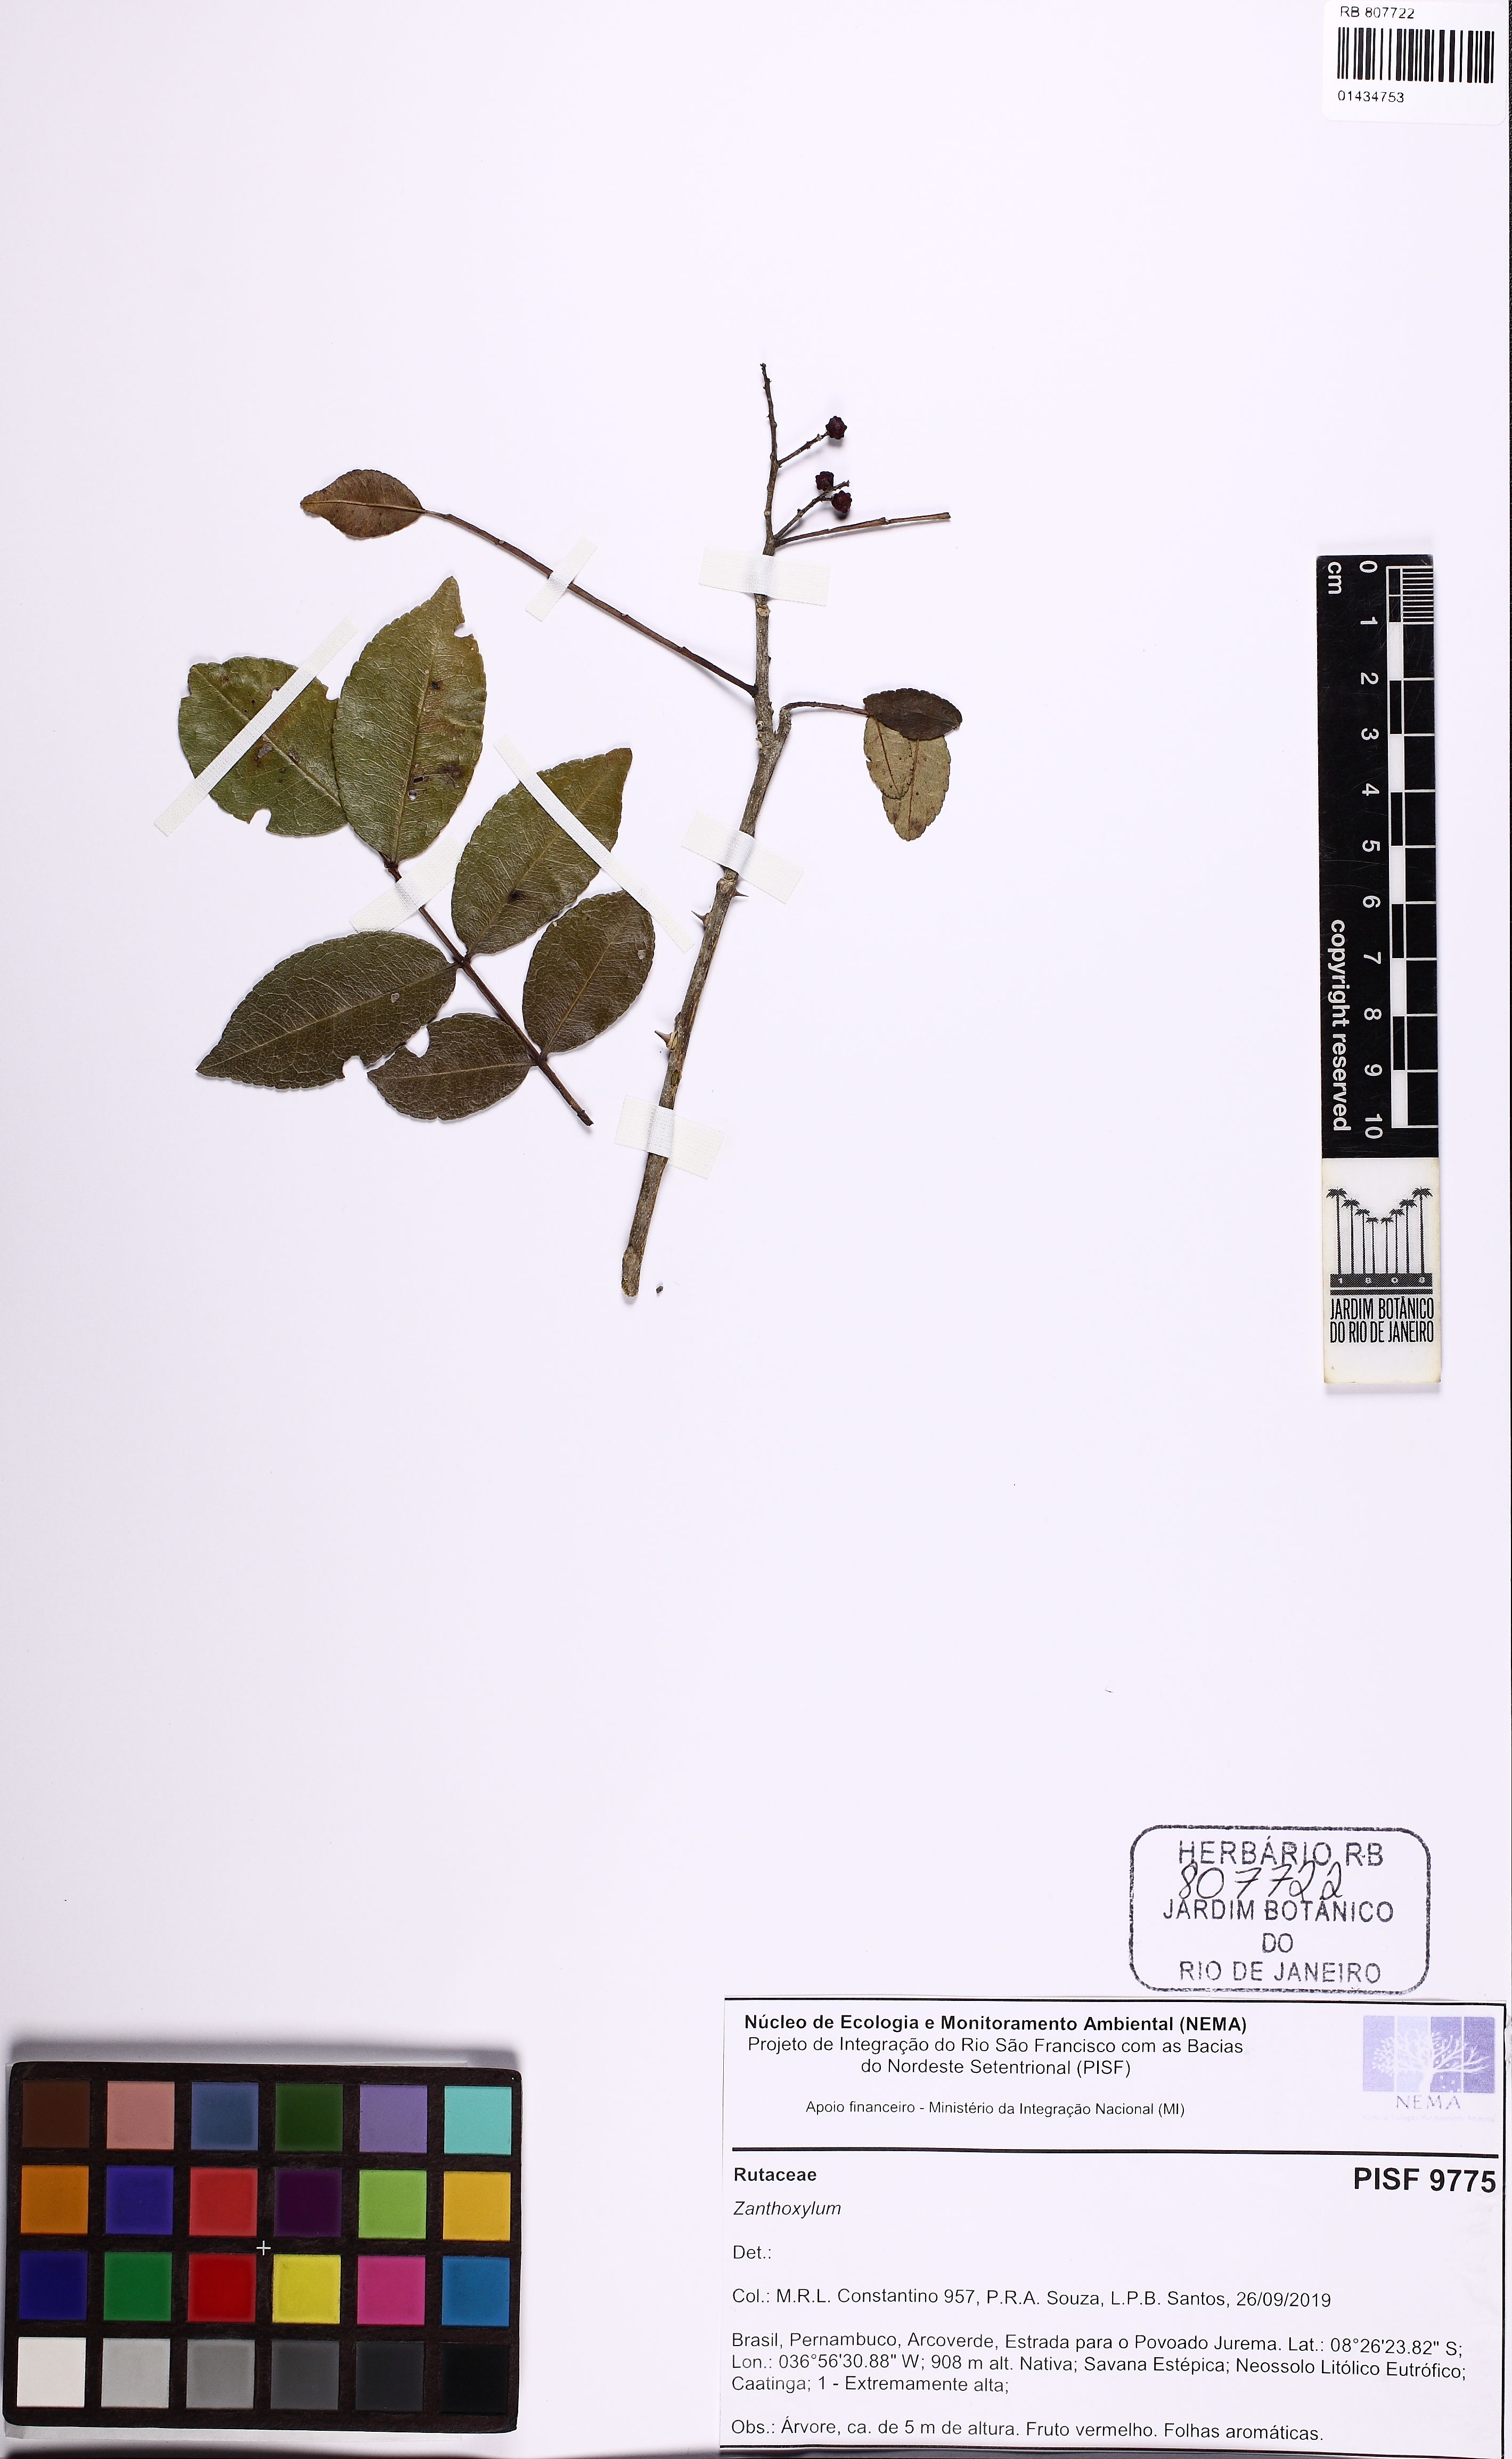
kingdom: Plantae
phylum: Tracheophyta
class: Magnoliopsida
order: Sapindales
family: Rutaceae
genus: Zanthoxylum
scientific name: Zanthoxylum
